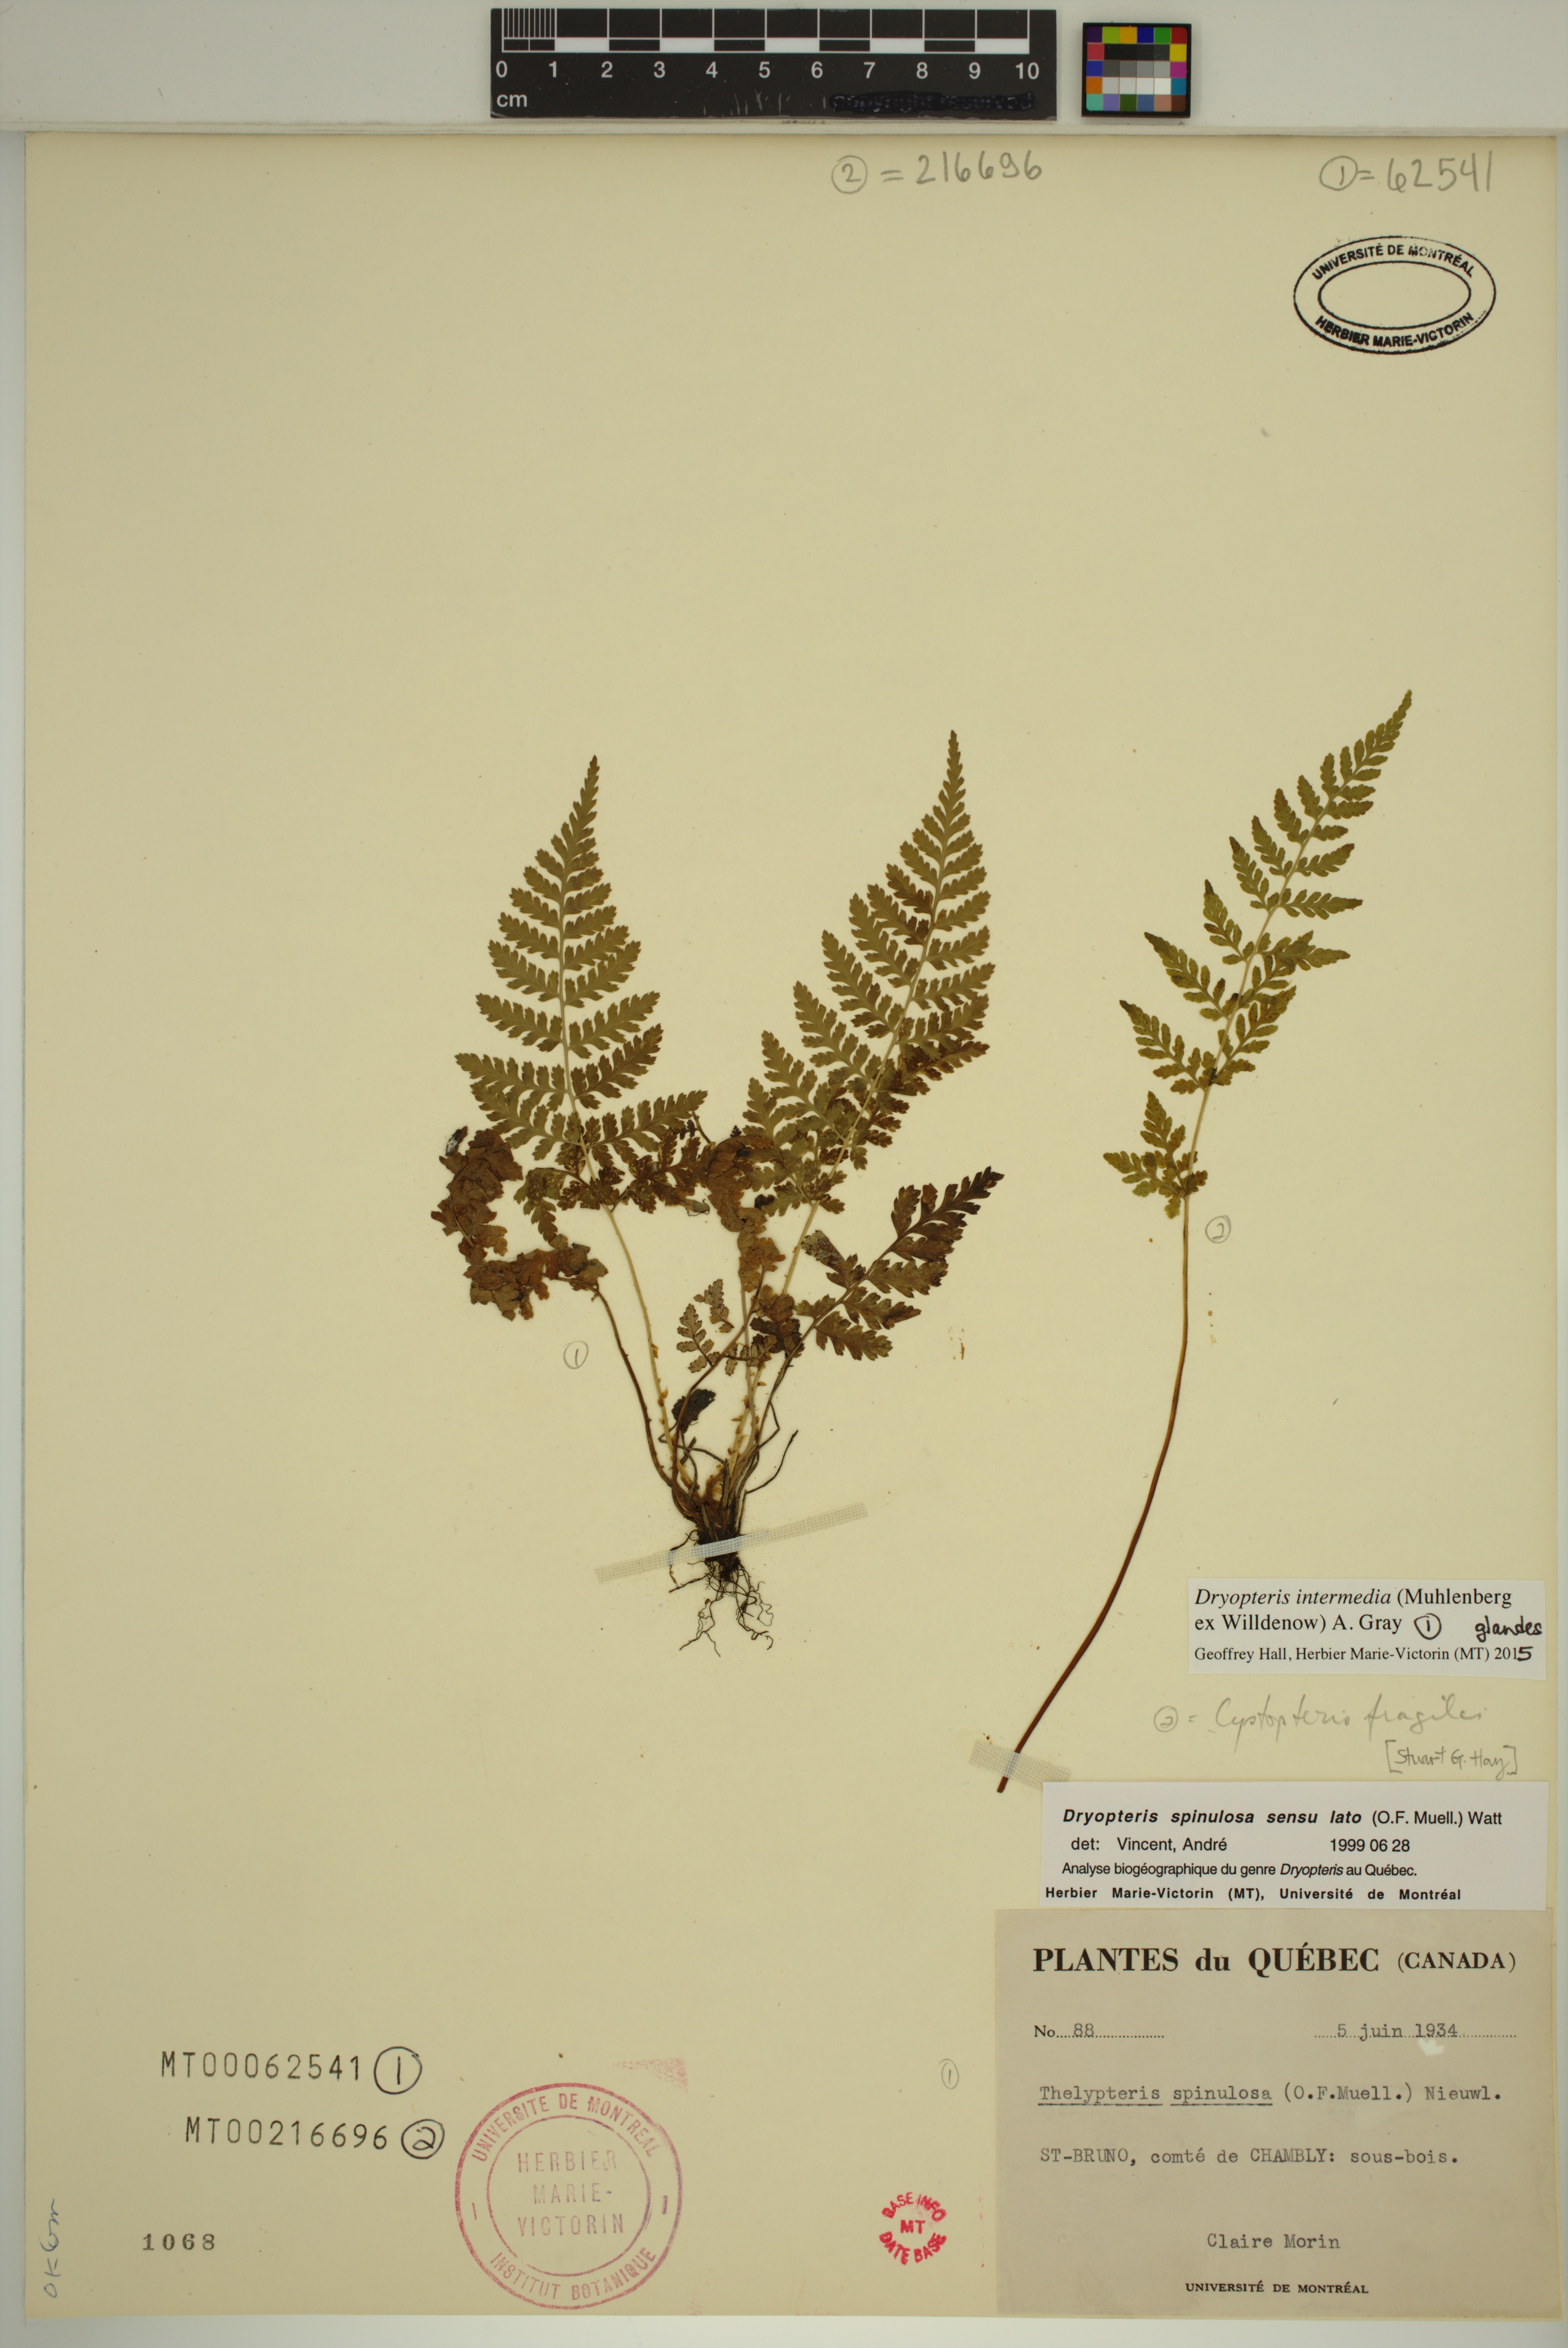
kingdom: Plantae
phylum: Tracheophyta
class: Polypodiopsida
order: Polypodiales
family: Dryopteridaceae
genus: Dryopteris
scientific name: Dryopteris intermedia
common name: Evergreen wood fern
